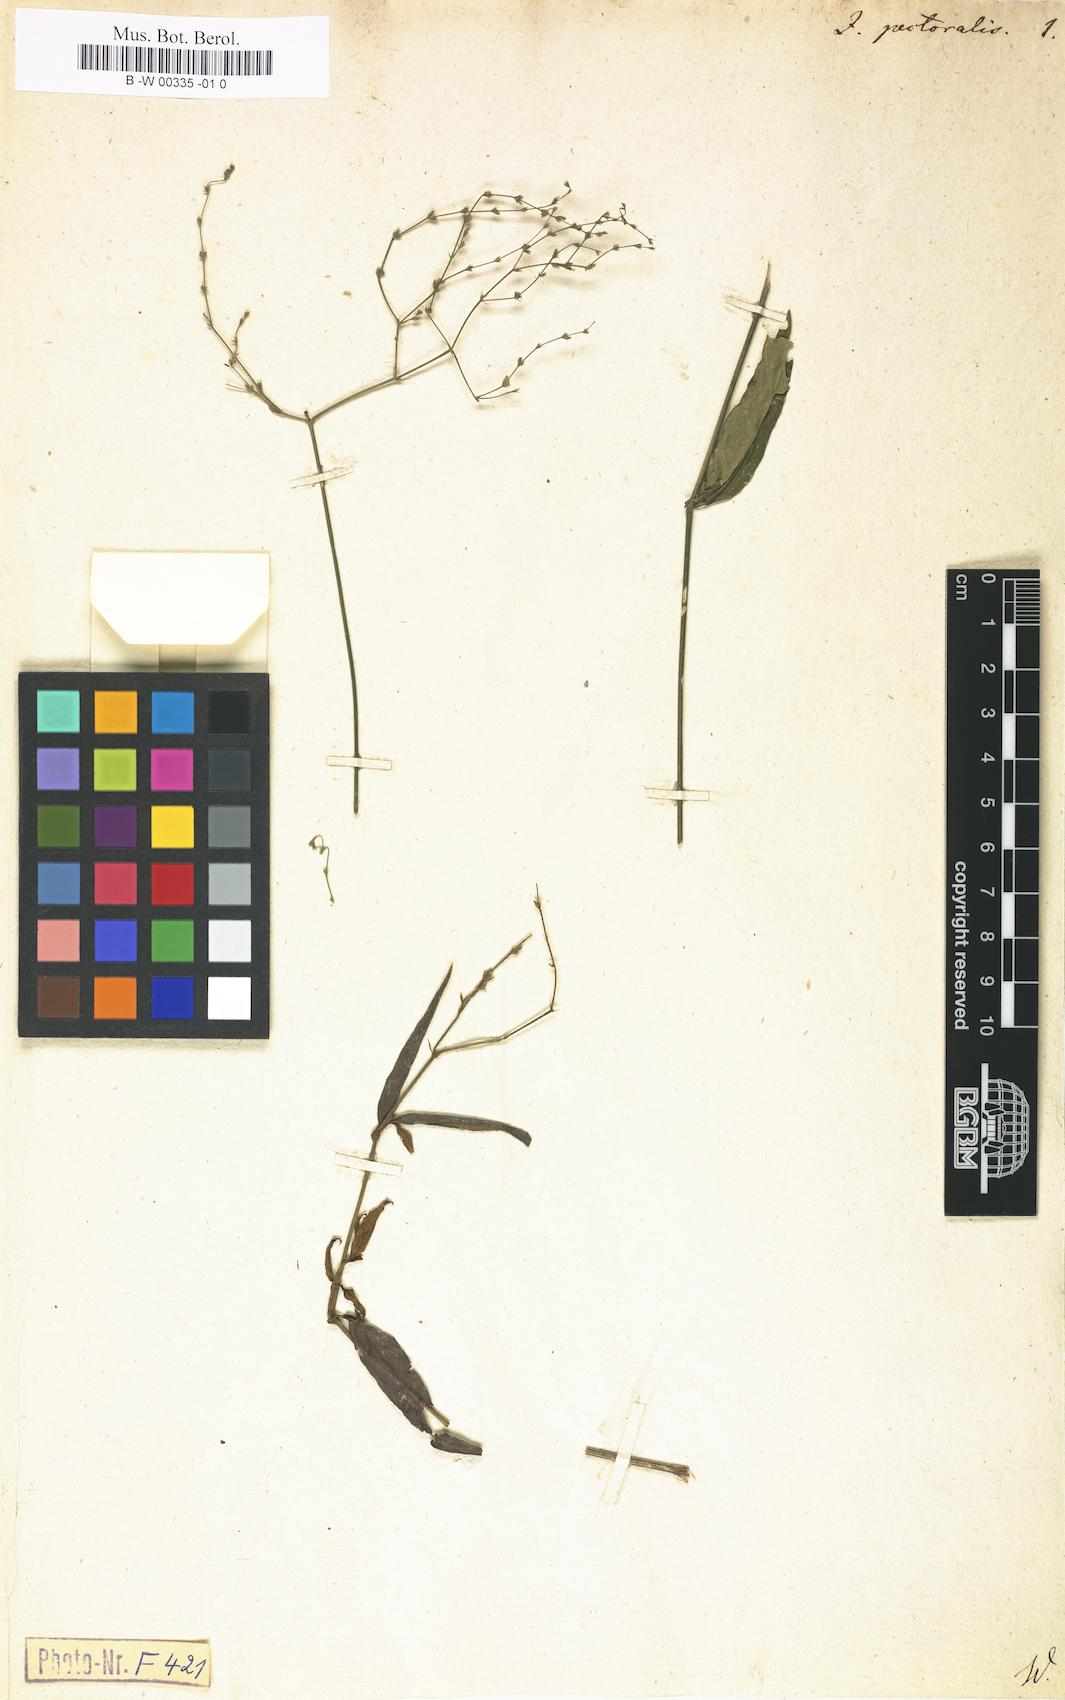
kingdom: Plantae
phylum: Tracheophyta
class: Magnoliopsida
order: Lamiales
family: Acanthaceae
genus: Dianthera
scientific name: Dianthera pectoralis
